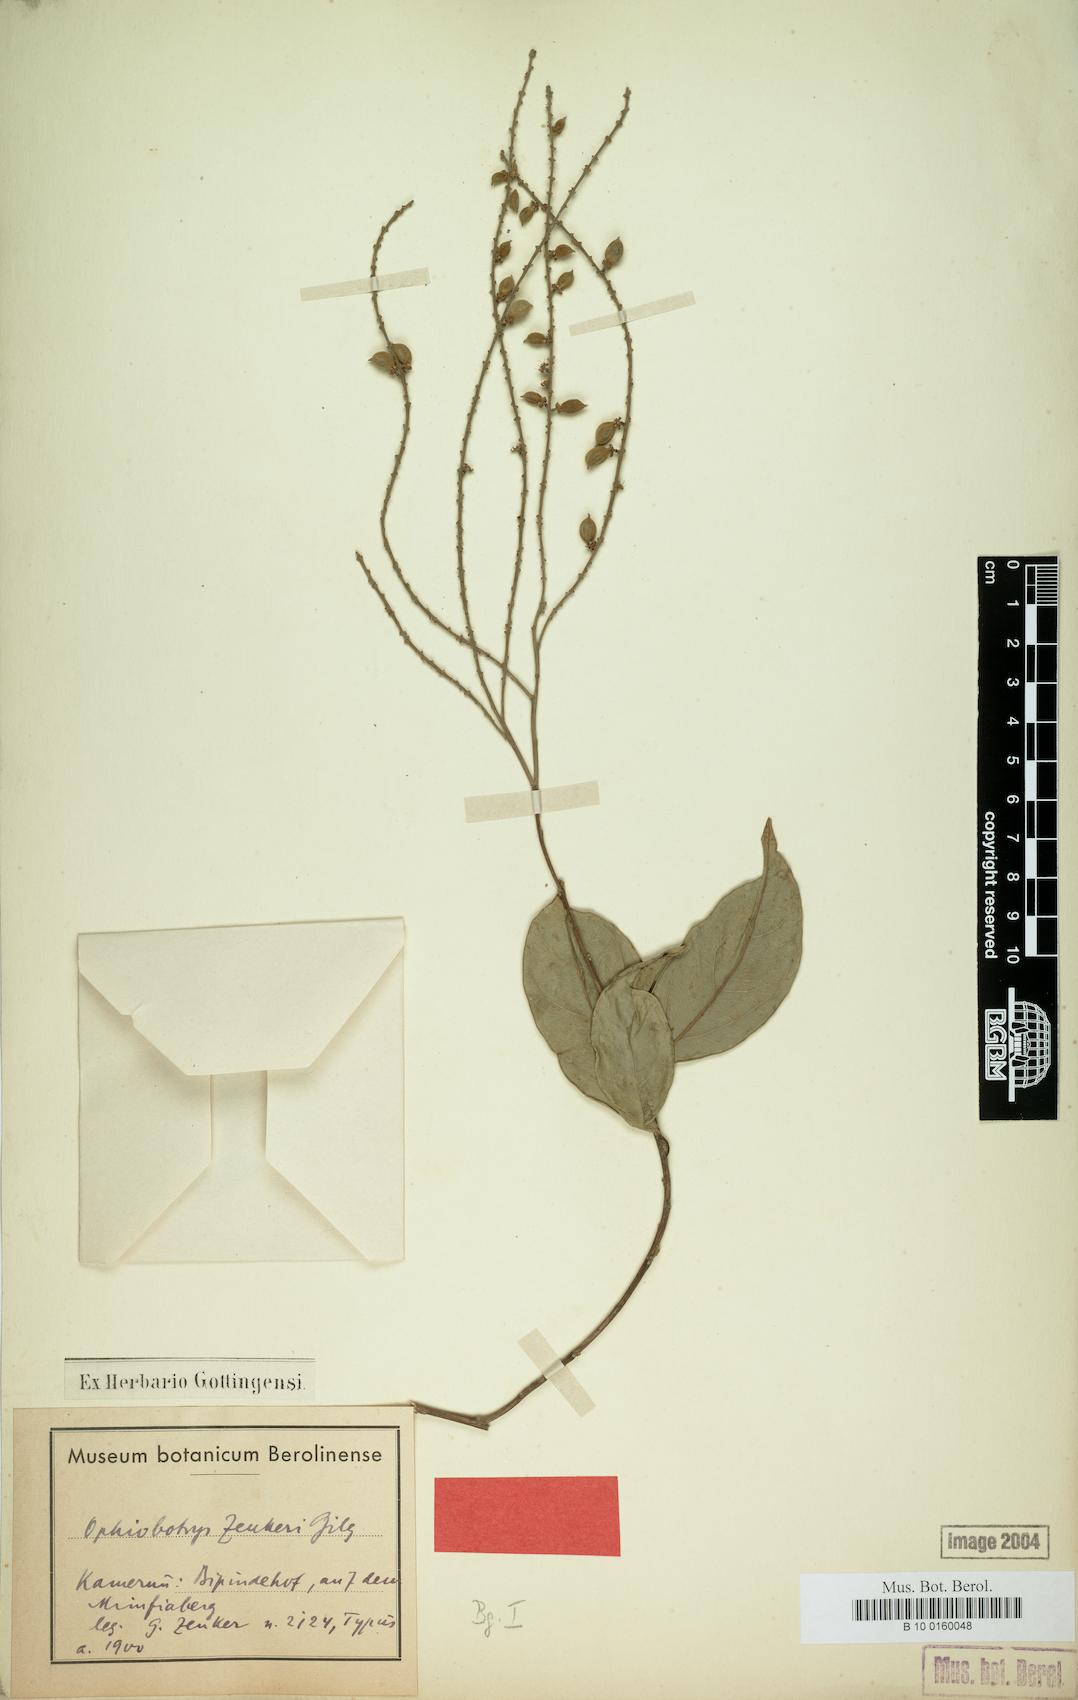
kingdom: Plantae
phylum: Tracheophyta
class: Magnoliopsida
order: Malpighiales
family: Salicaceae
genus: Ophiobotrys
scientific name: Ophiobotrys zenkeri
